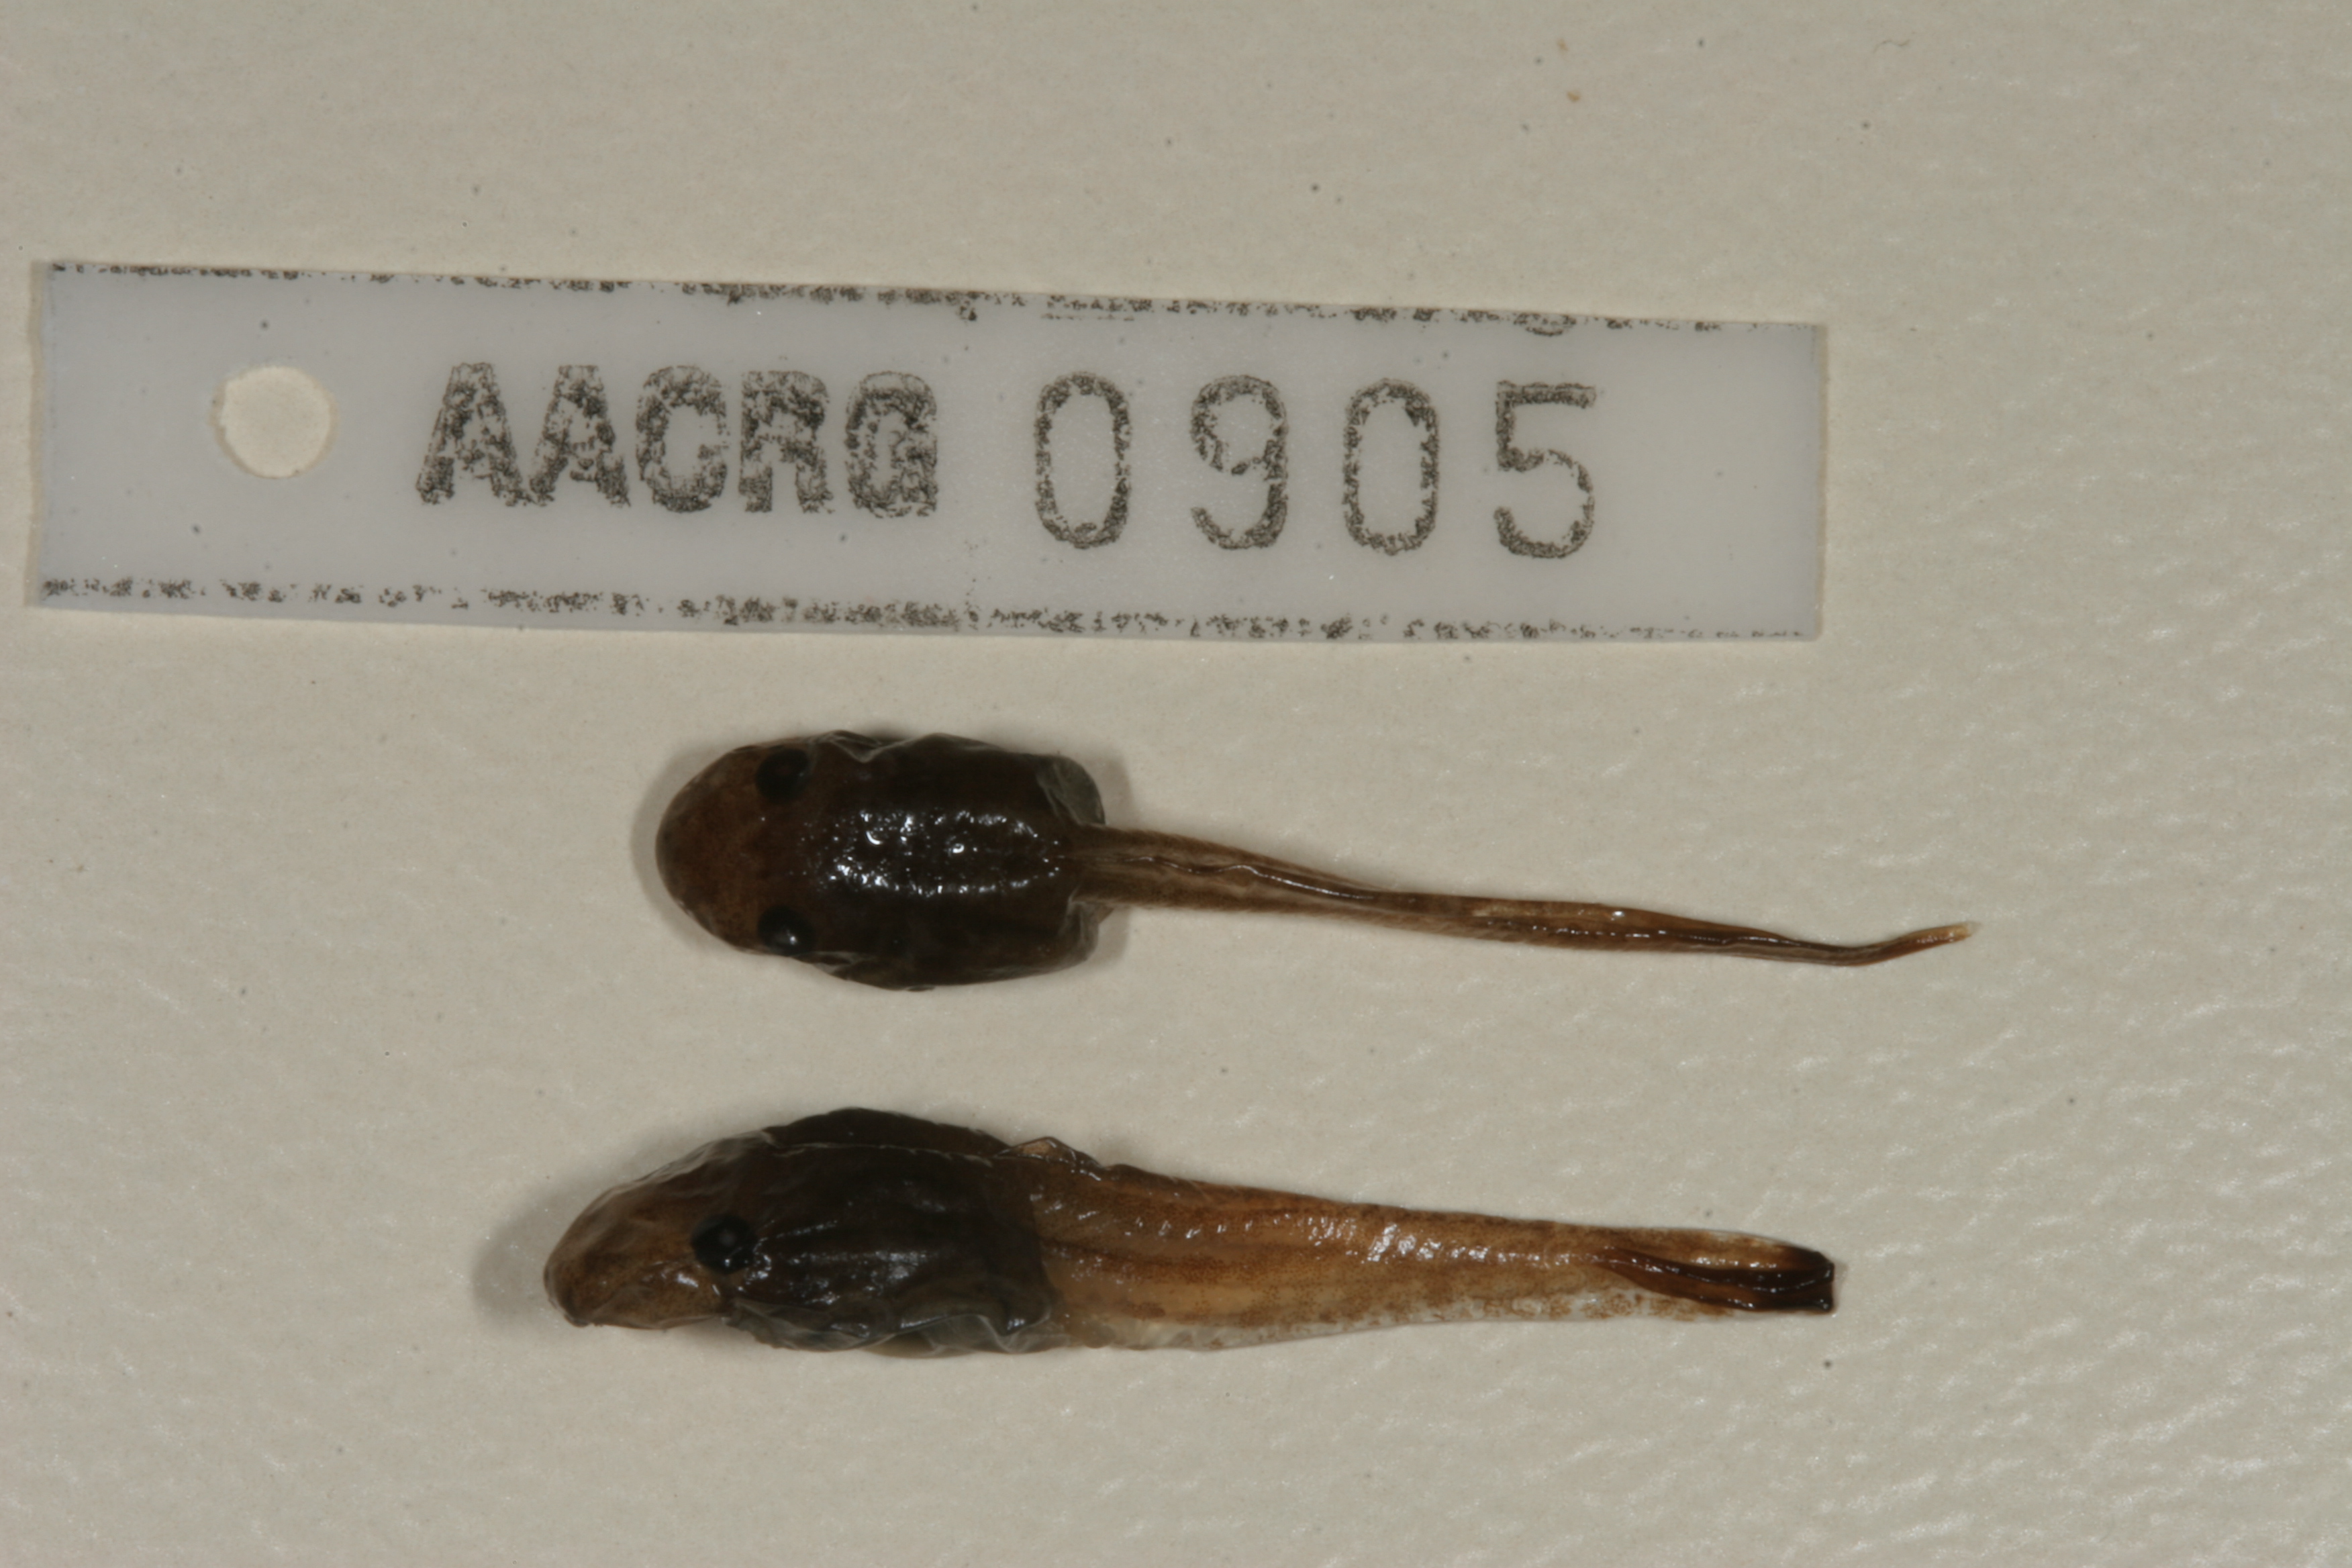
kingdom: Animalia
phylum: Chordata
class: Amphibia
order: Anura
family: Hyperoliidae
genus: Hyperolius
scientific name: Hyperolius marmoratus
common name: Painted reed frog
